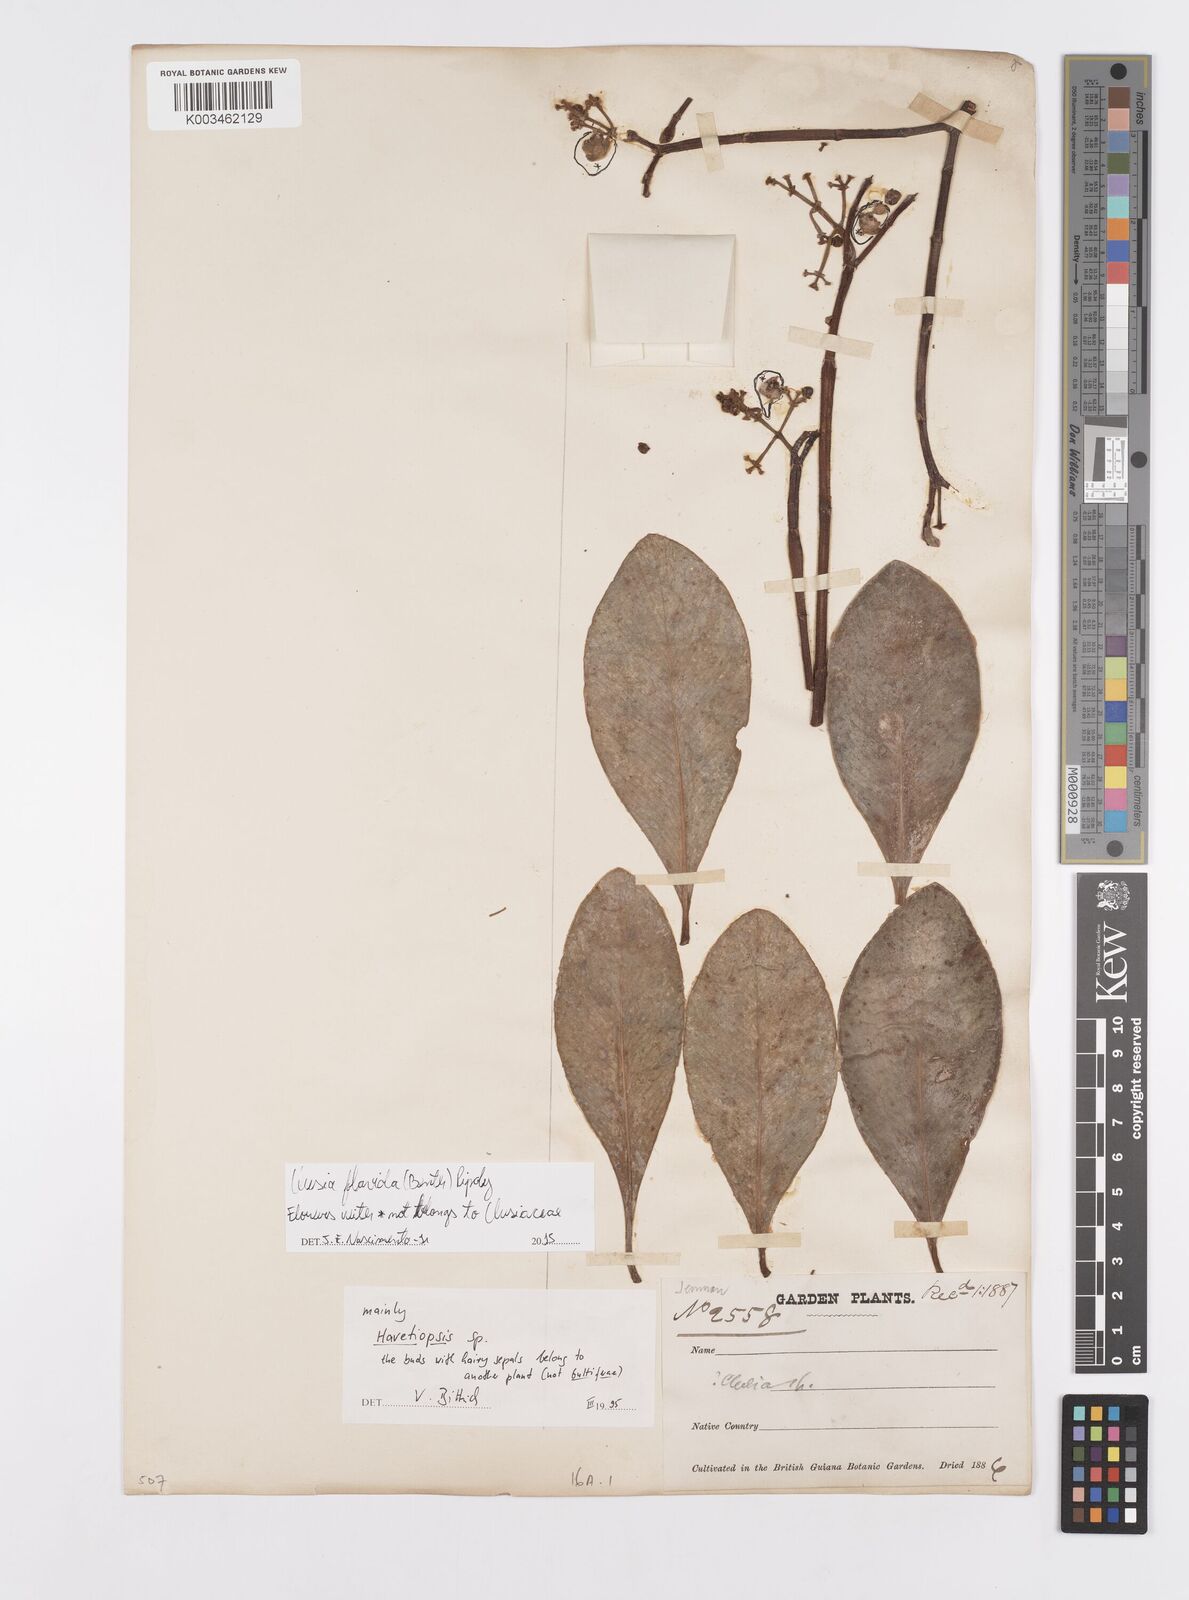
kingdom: Plantae
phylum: Tracheophyta
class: Magnoliopsida
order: Malpighiales
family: Clusiaceae
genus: Clusia
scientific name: Clusia flavida
